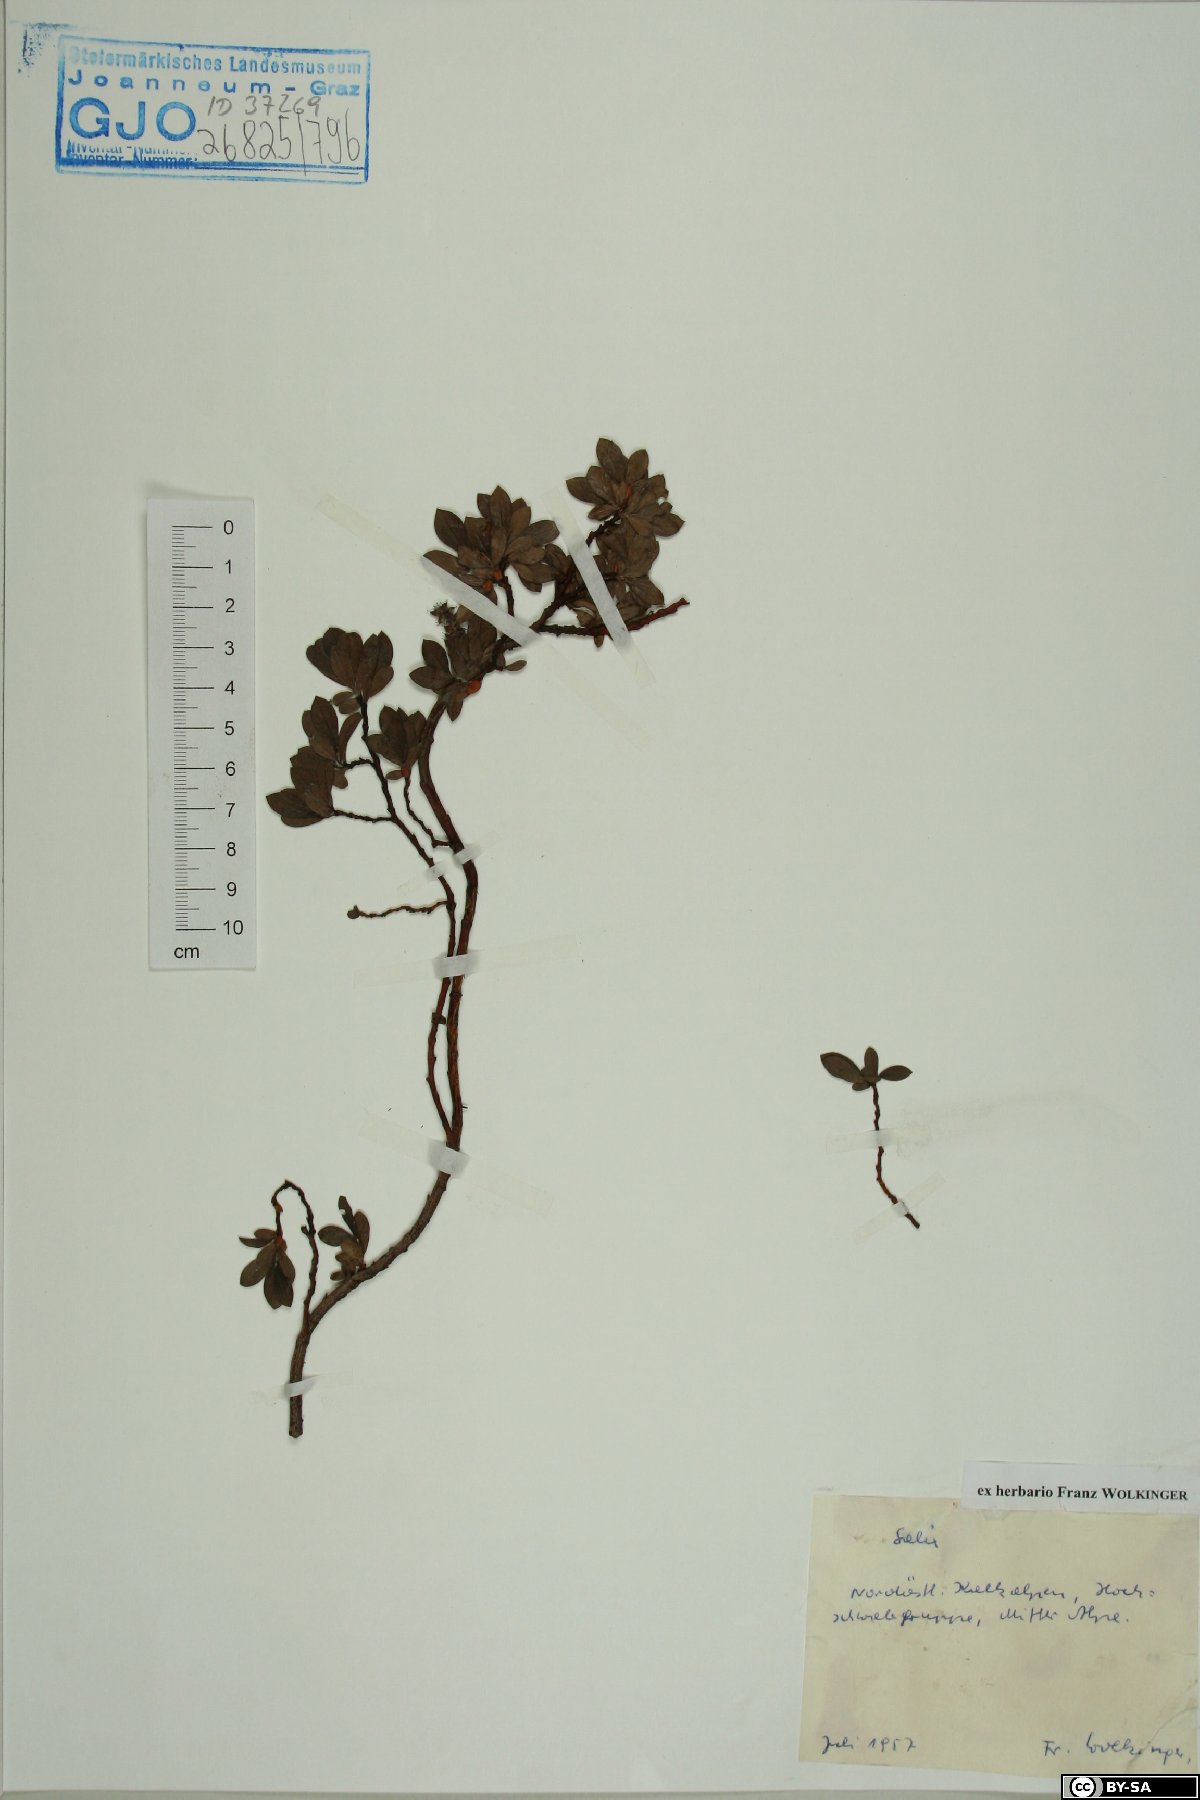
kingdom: Plantae
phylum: Tracheophyta
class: Magnoliopsida
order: Malpighiales
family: Salicaceae
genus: Salix
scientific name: Salix
